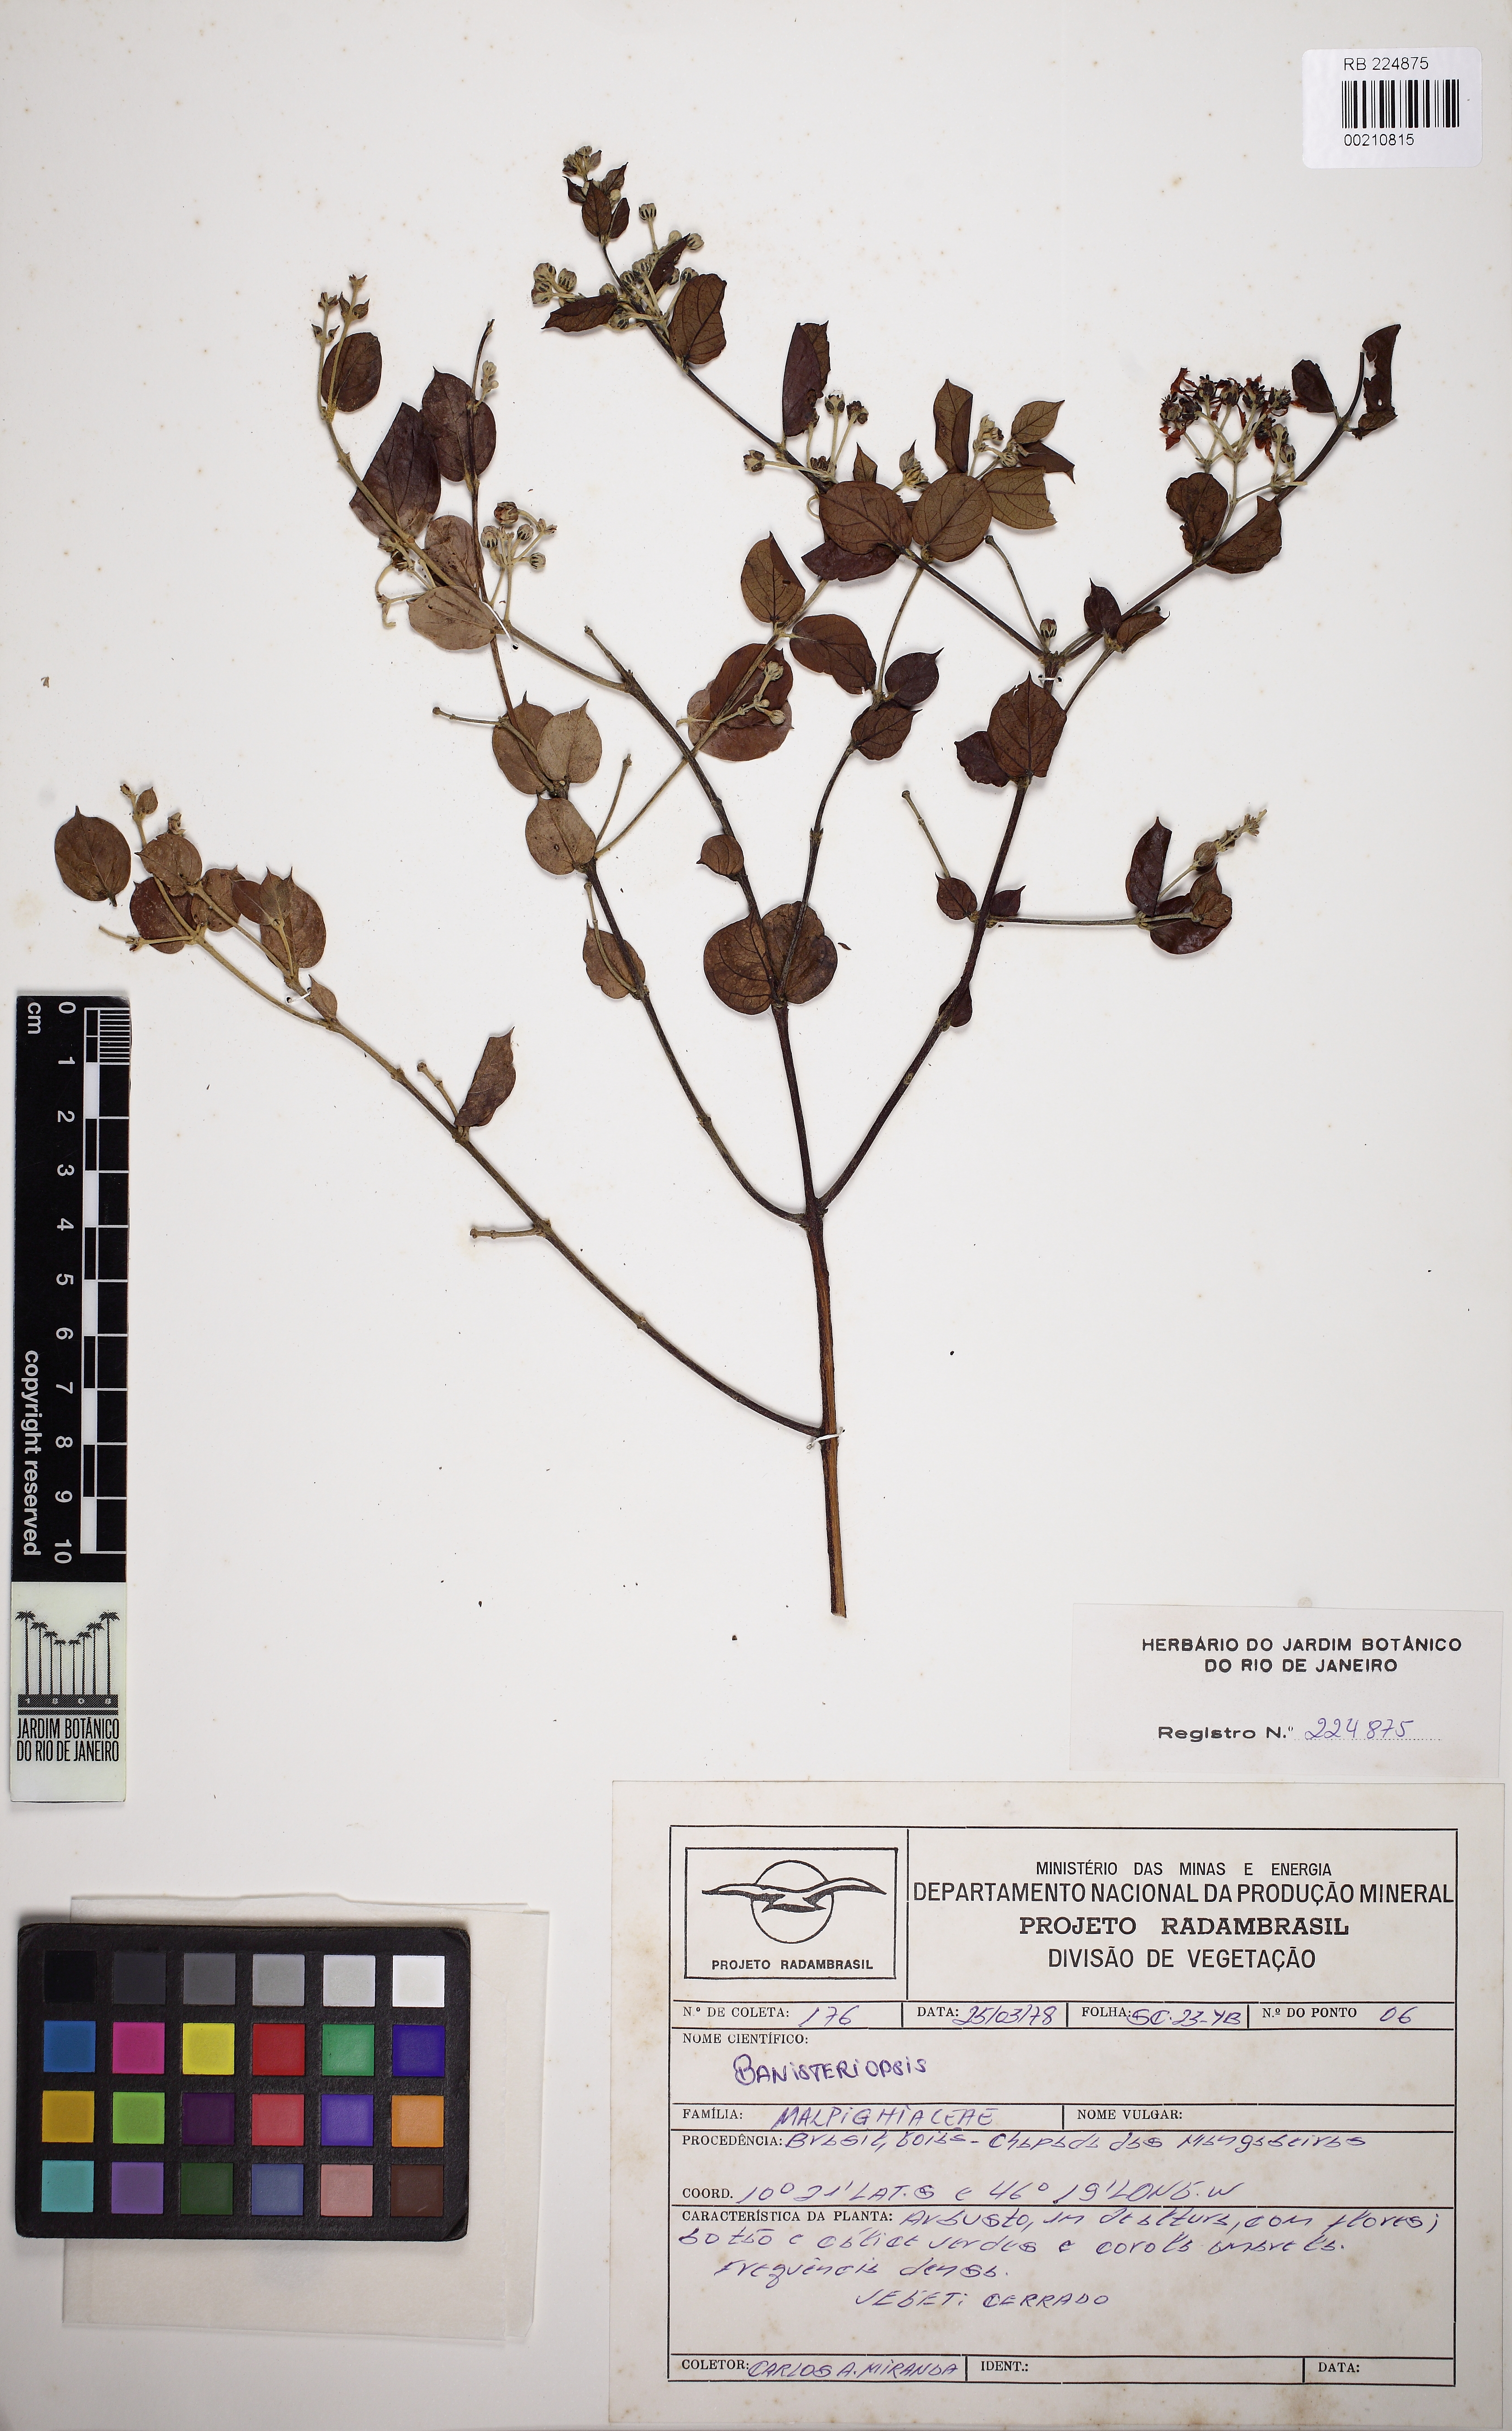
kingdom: Plantae
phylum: Tracheophyta
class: Magnoliopsida
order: Malpighiales
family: Malpighiaceae
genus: Banisteriopsis
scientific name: Banisteriopsis
